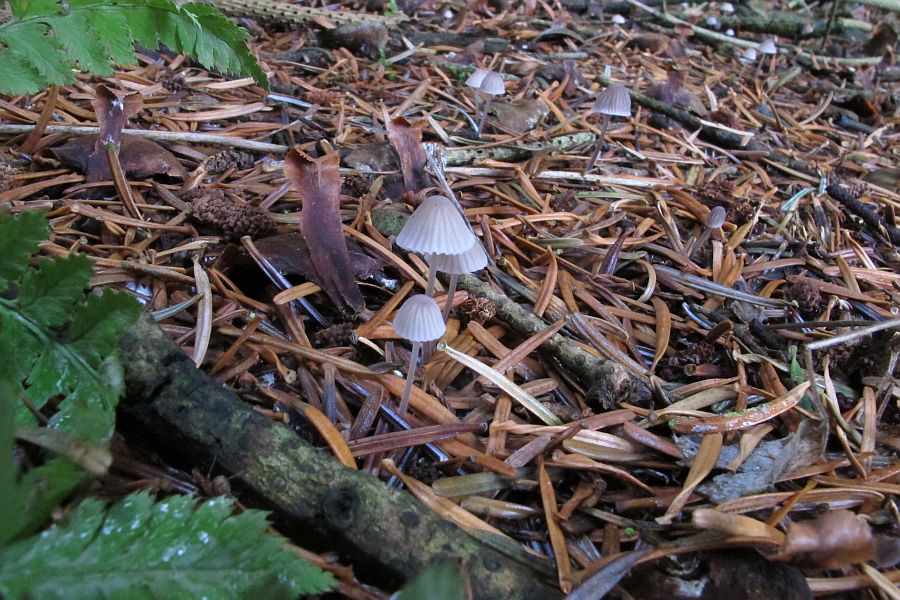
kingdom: Fungi
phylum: Basidiomycota
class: Agaricomycetes
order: Agaricales
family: Mycenaceae
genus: Mycena
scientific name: Mycena capillaripes
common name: nåle-huesvamp
